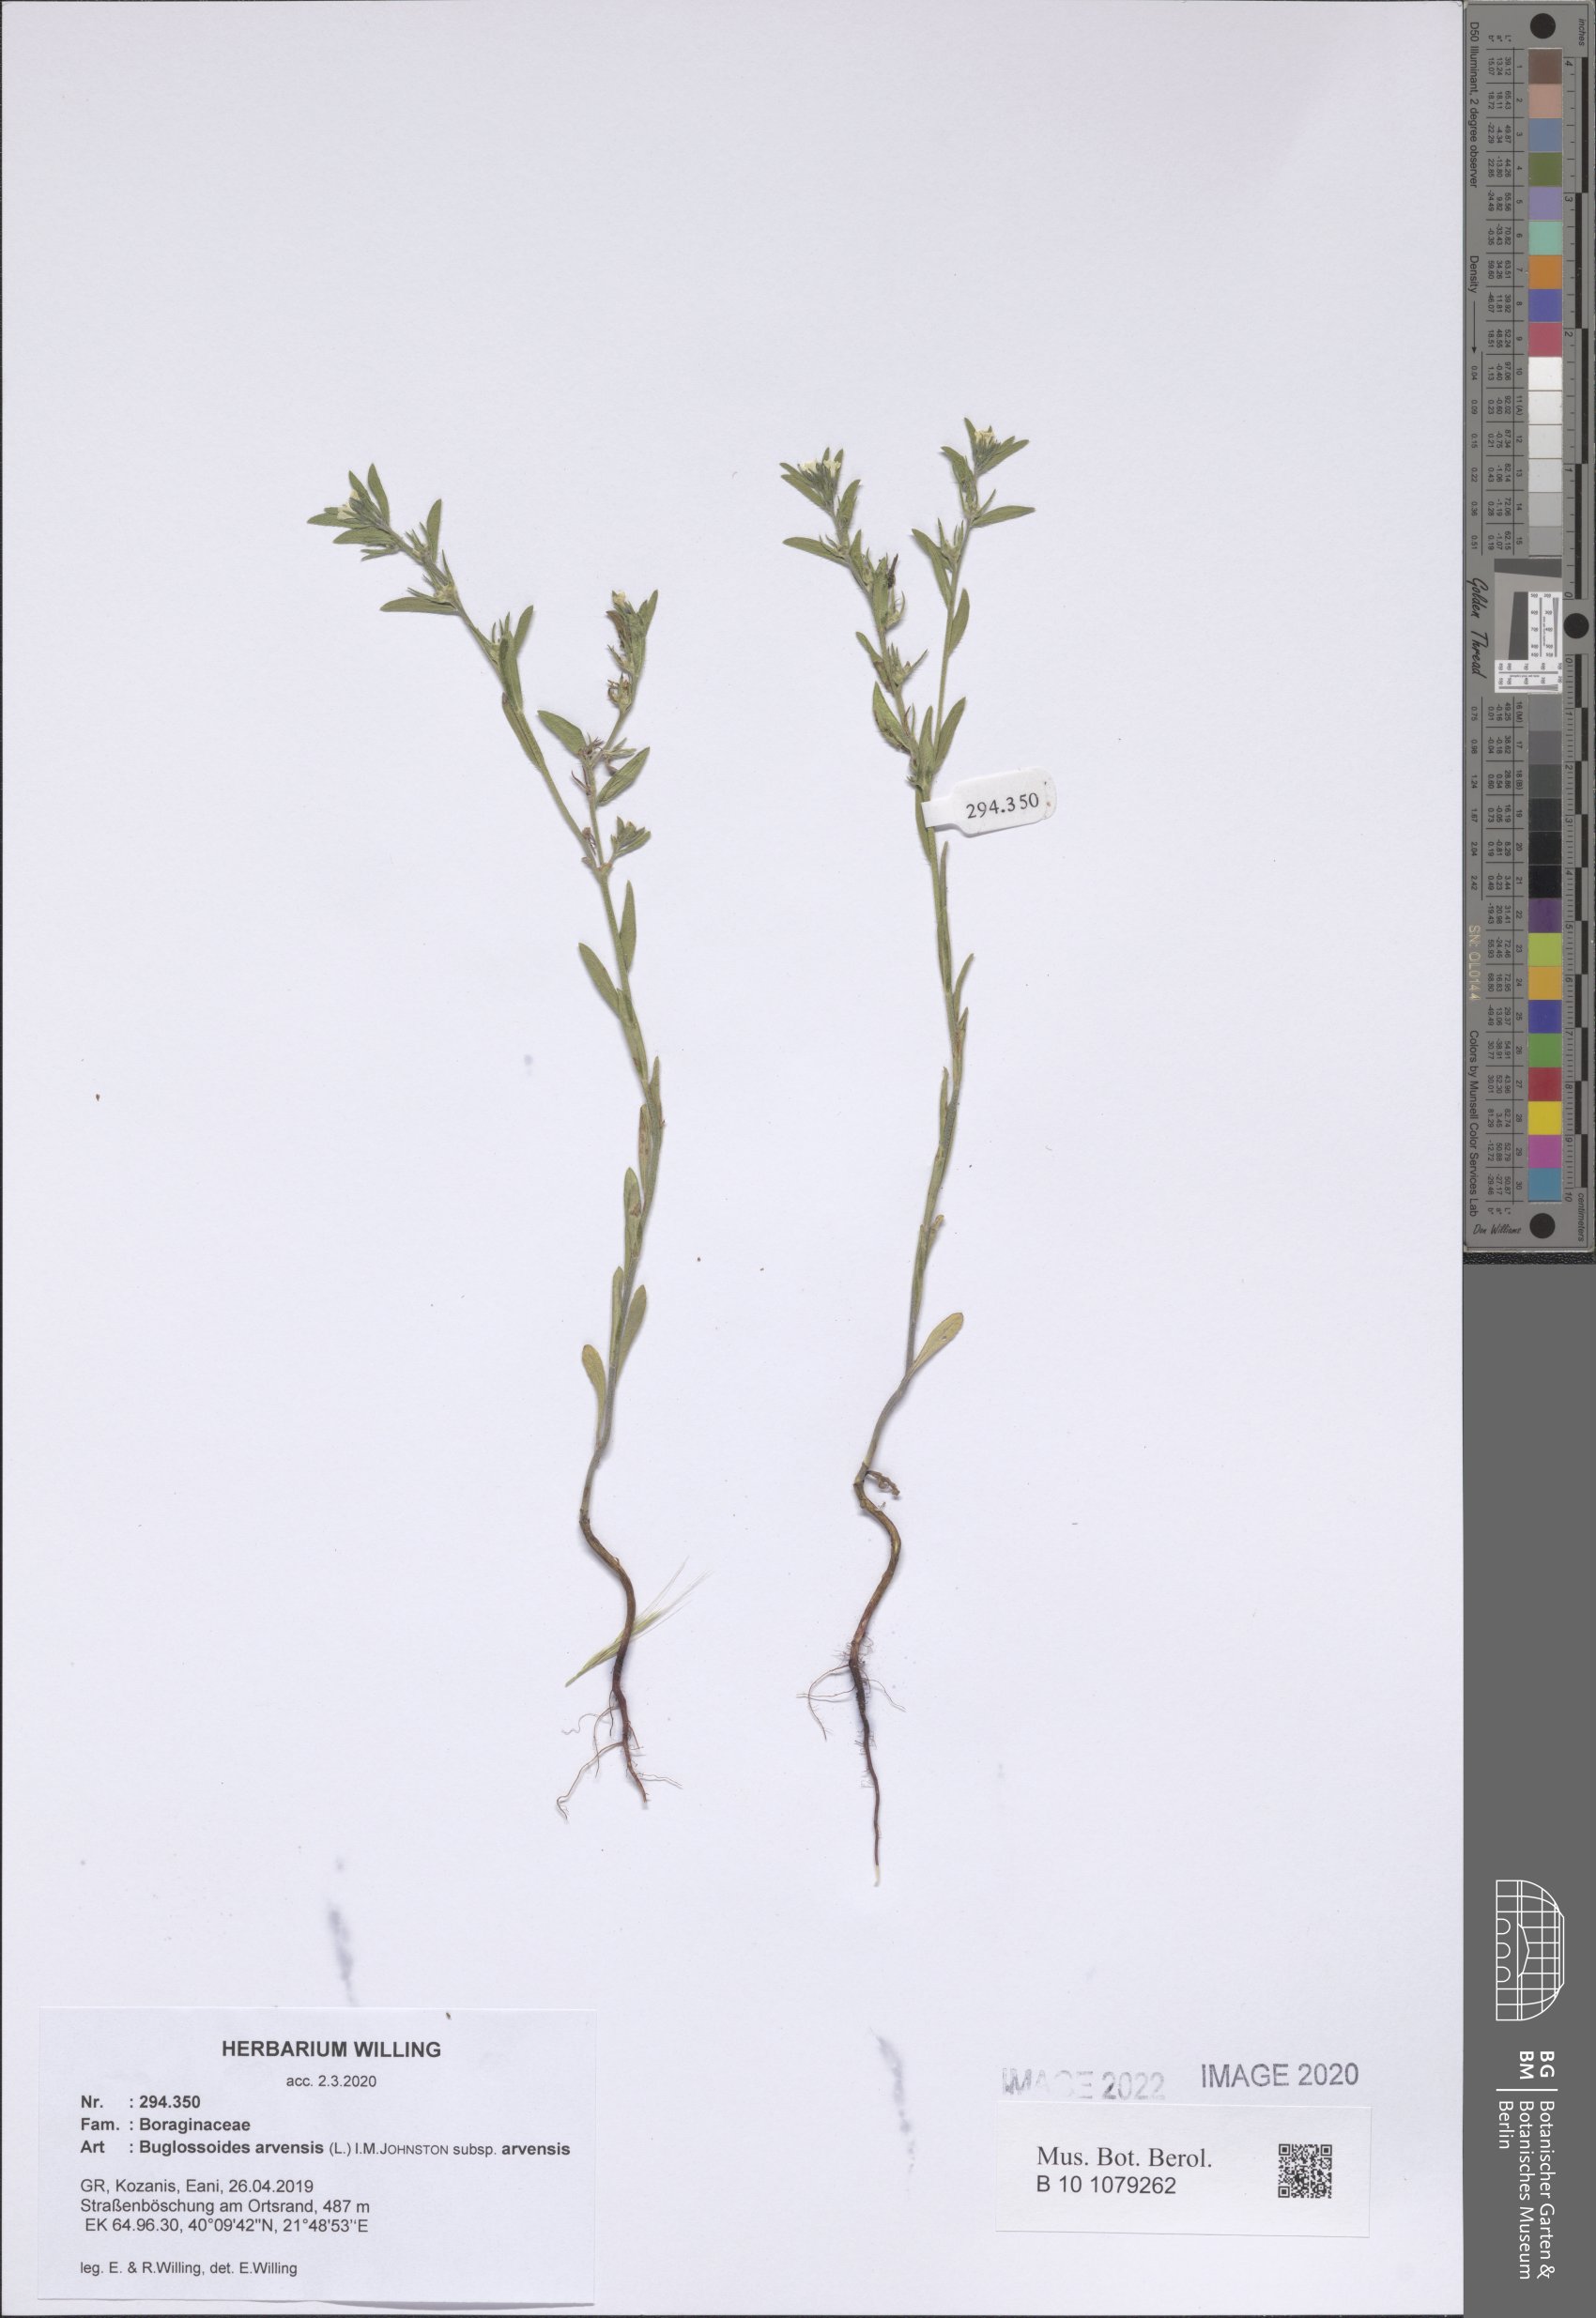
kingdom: Plantae
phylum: Tracheophyta
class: Magnoliopsida
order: Boraginales
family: Boraginaceae
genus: Buglossoides
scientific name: Buglossoides arvensis
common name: Corn gromwell
